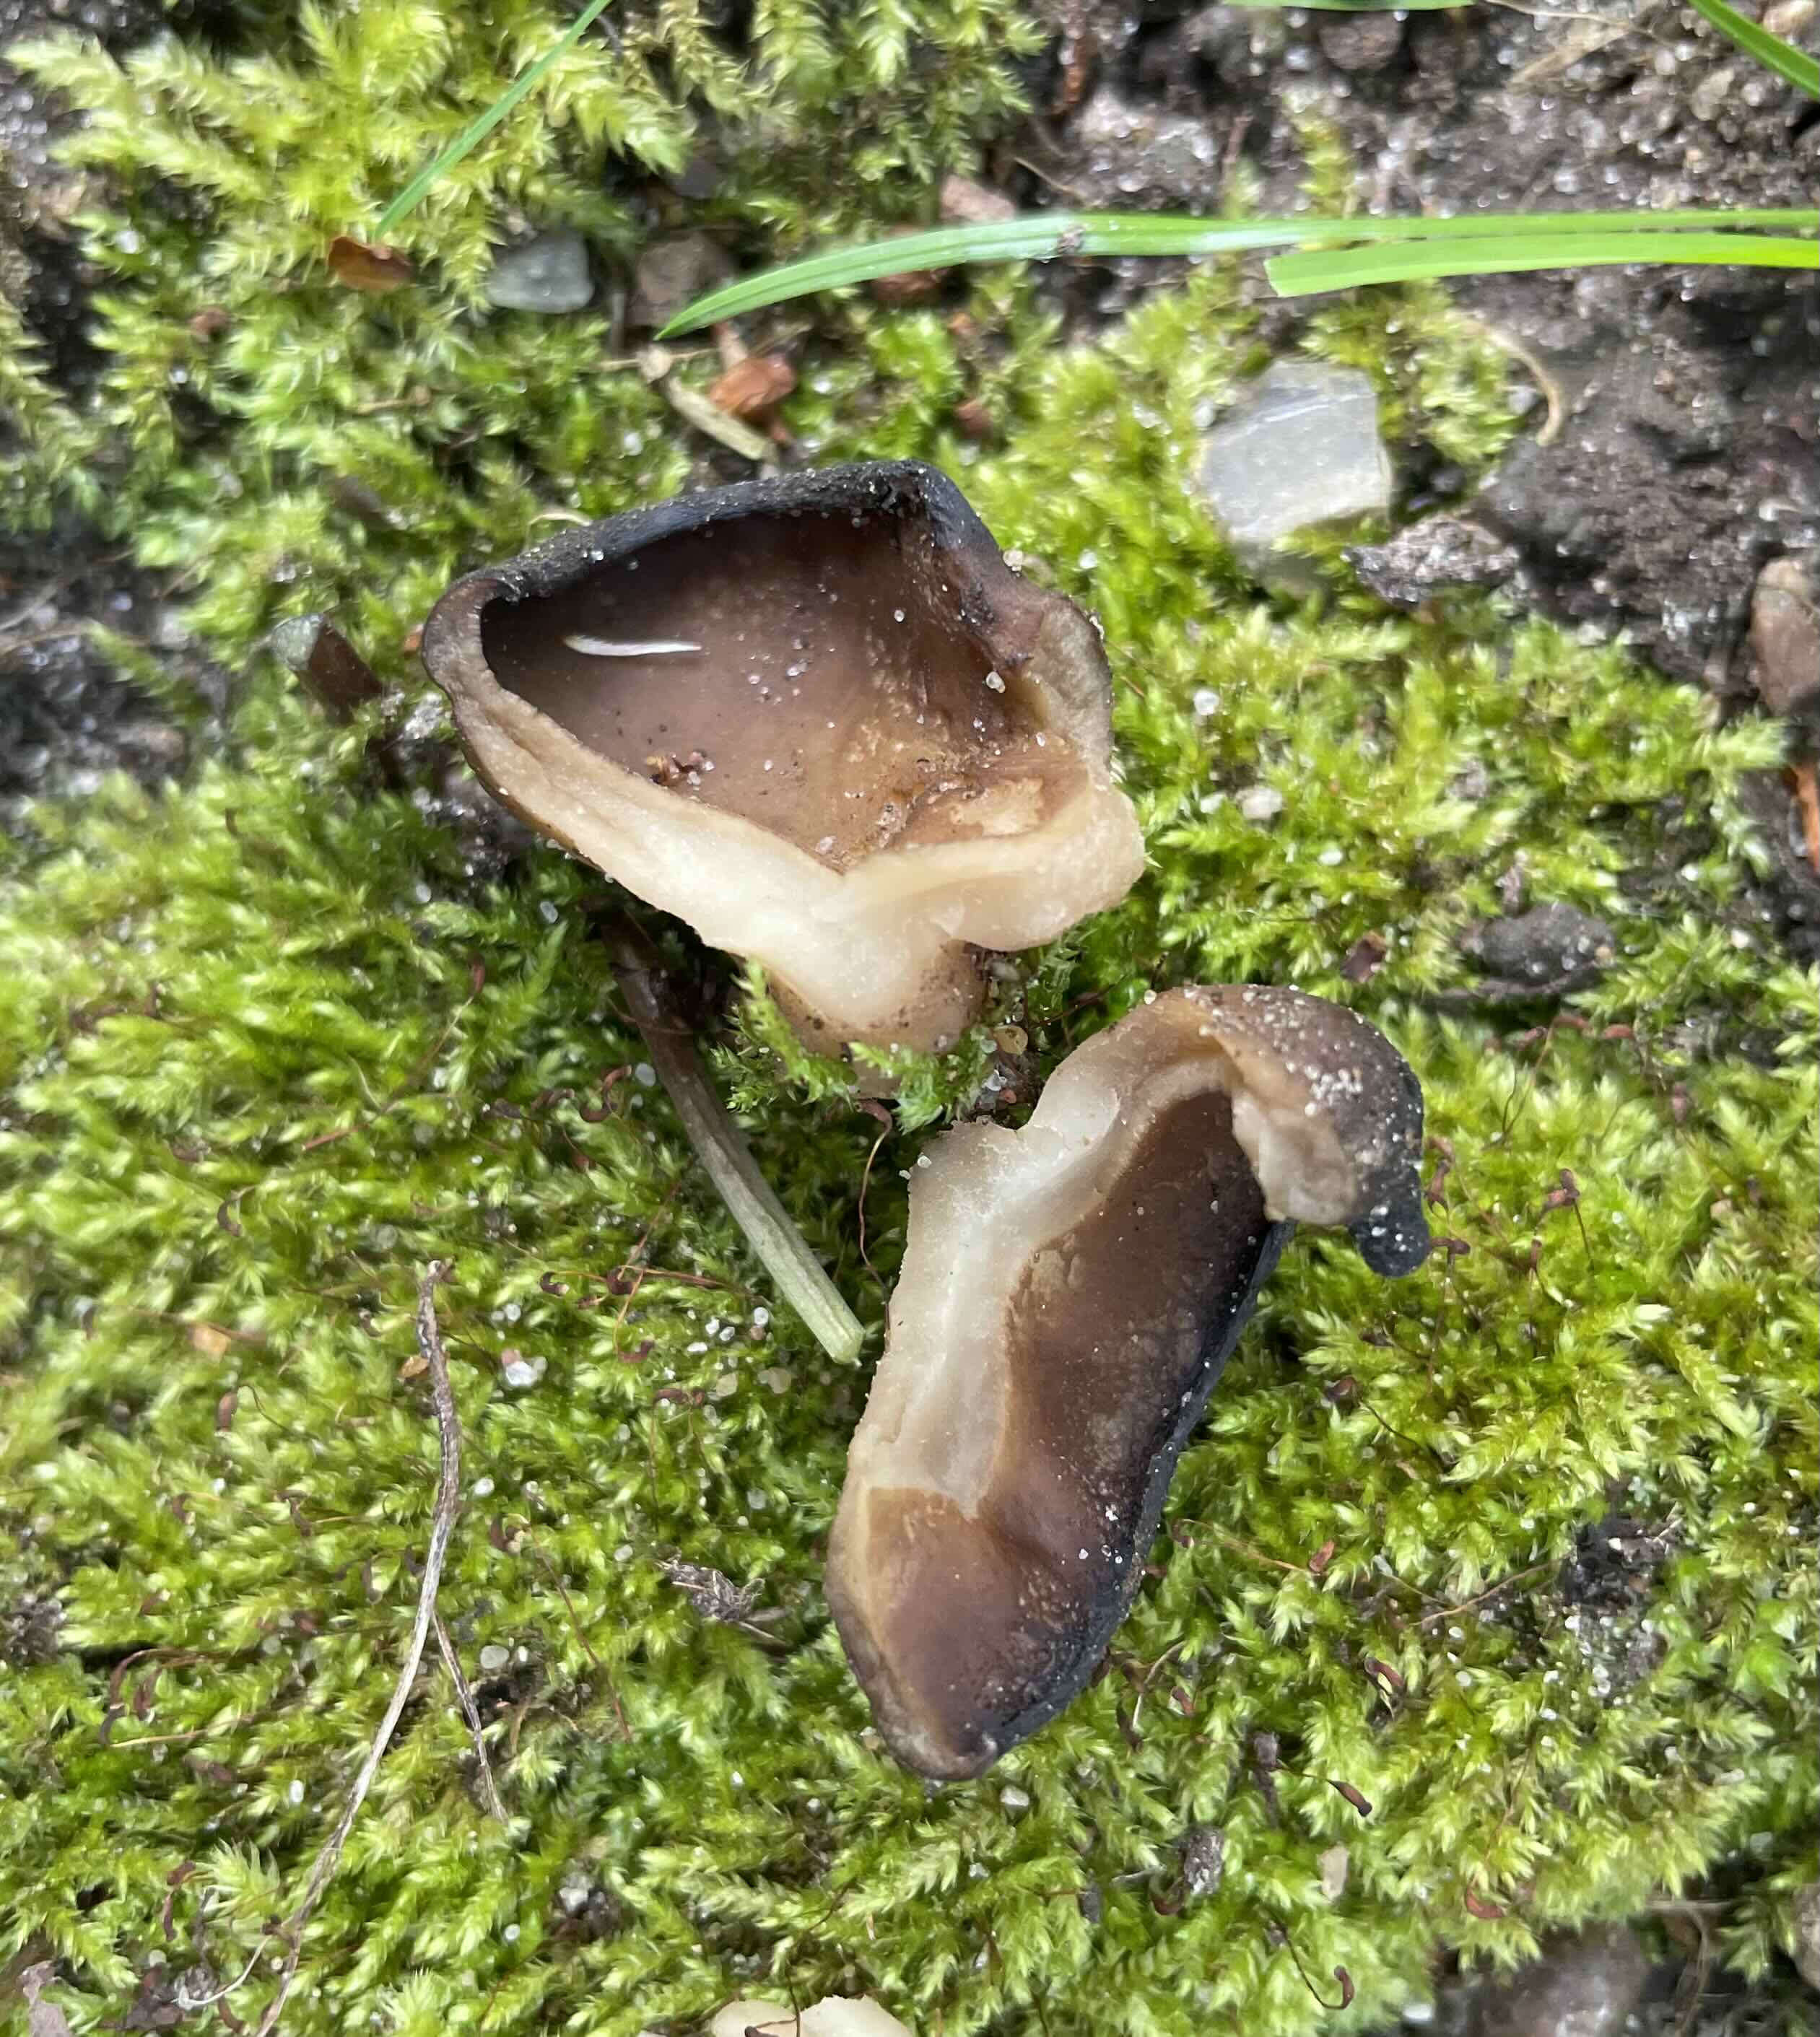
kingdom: Fungi
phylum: Ascomycota
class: Pezizomycetes
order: Pezizales
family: Morchellaceae
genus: Disciotis
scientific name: Disciotis venosa
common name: klor-bægermorkel
